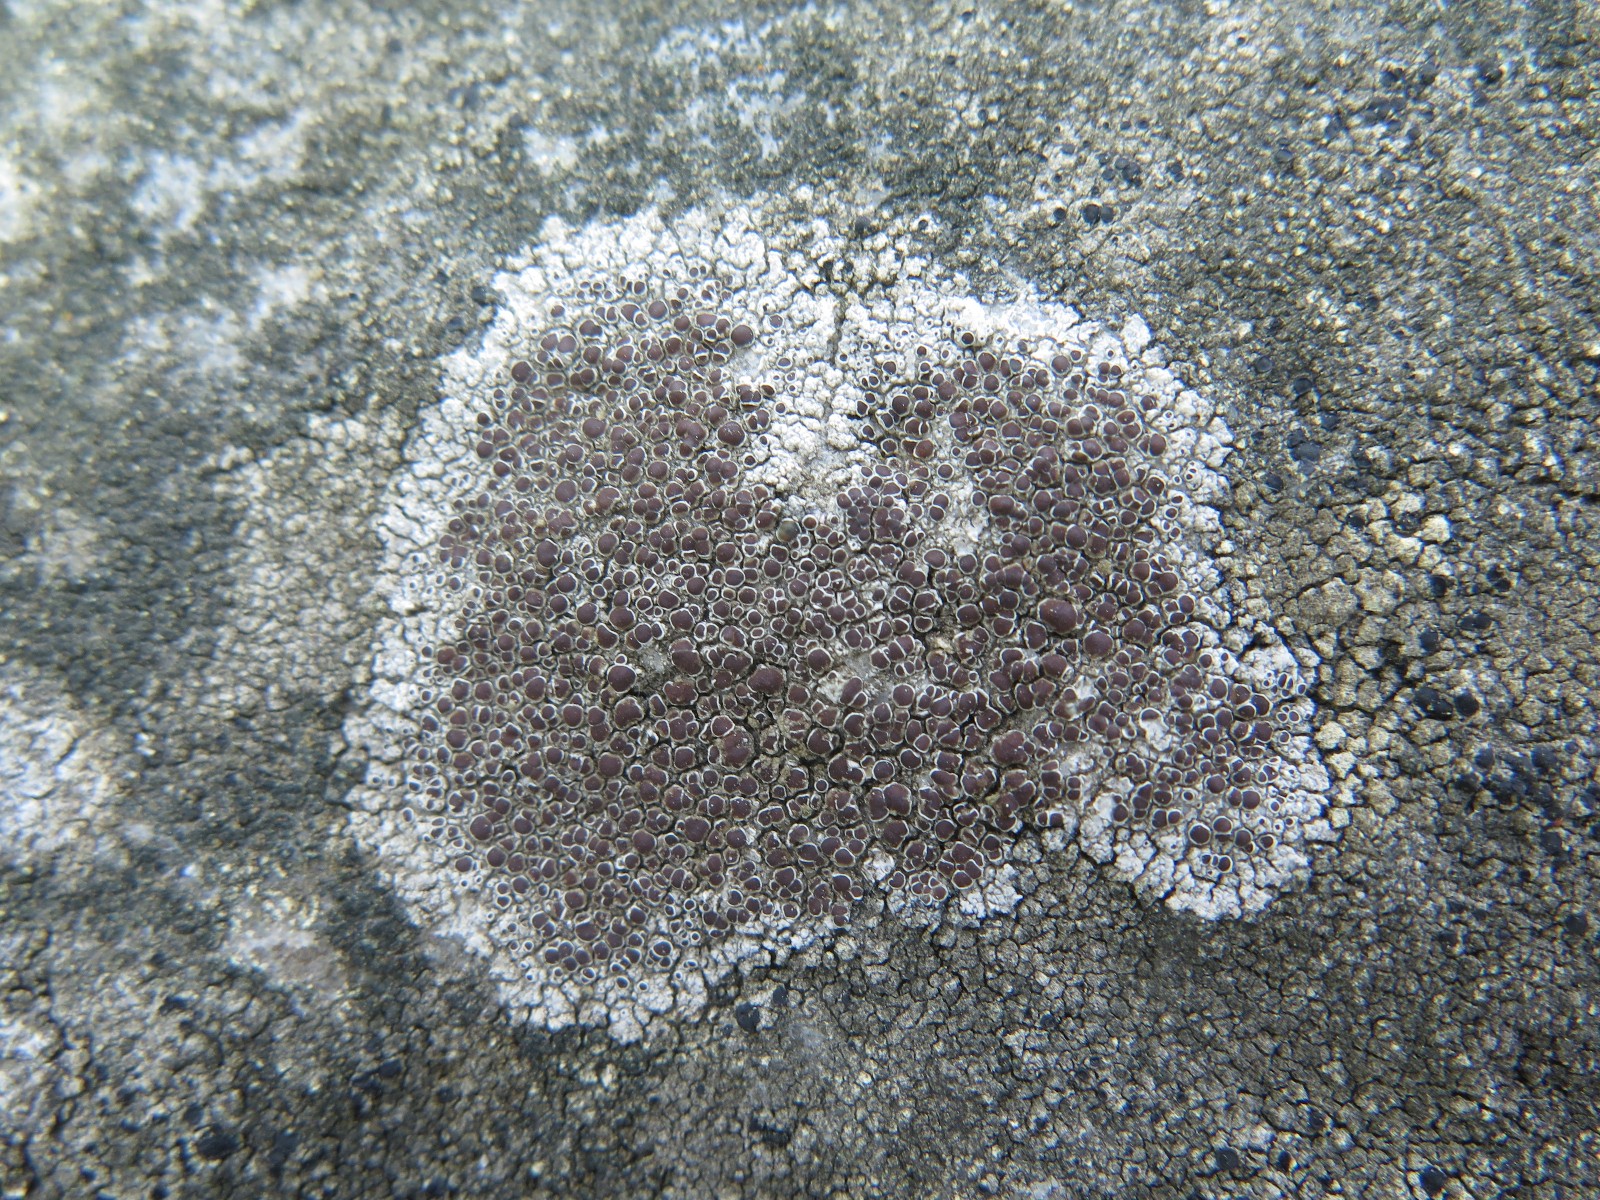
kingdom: Fungi
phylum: Ascomycota
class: Lecanoromycetes
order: Lecanorales
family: Lecanoraceae
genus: Lecanora
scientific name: Lecanora campestris
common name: mur-kantskivelav
